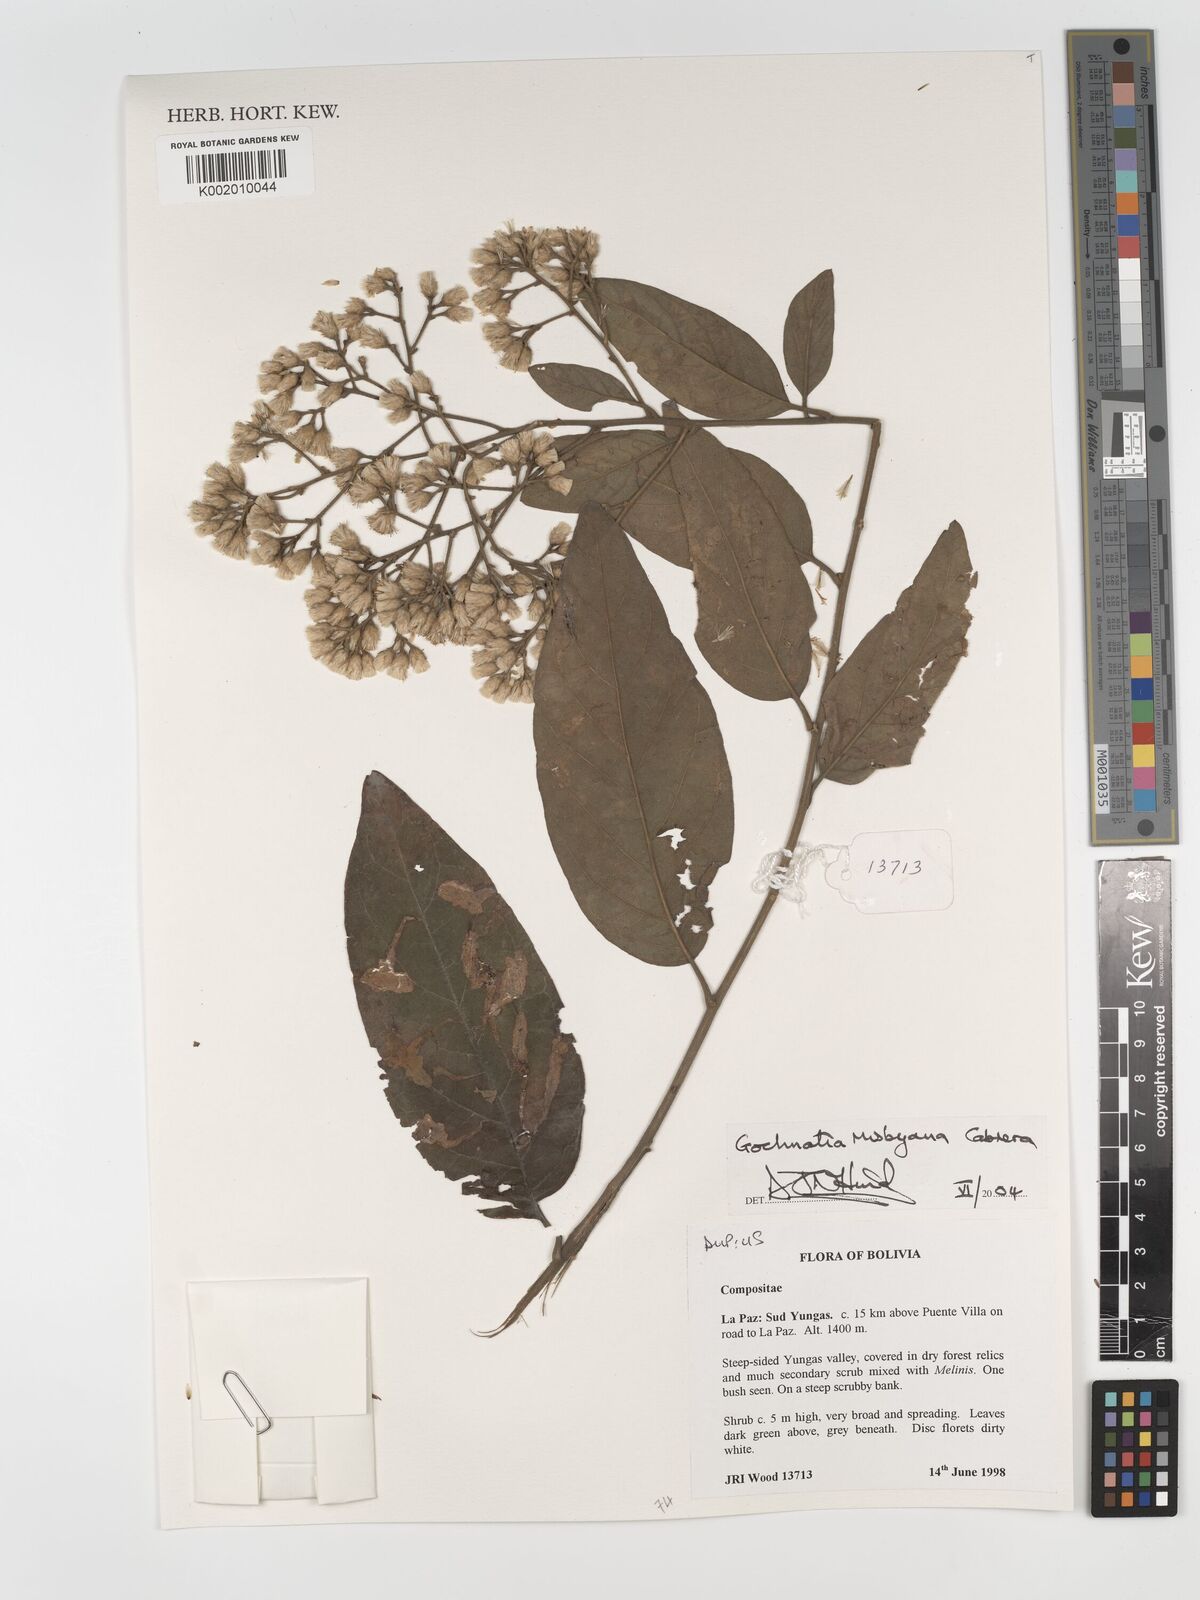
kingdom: Plantae
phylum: Tracheophyta
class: Magnoliopsida
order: Asterales
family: Asteraceae
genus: Moquiniastrum
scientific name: Moquiniastrum bolivianum
